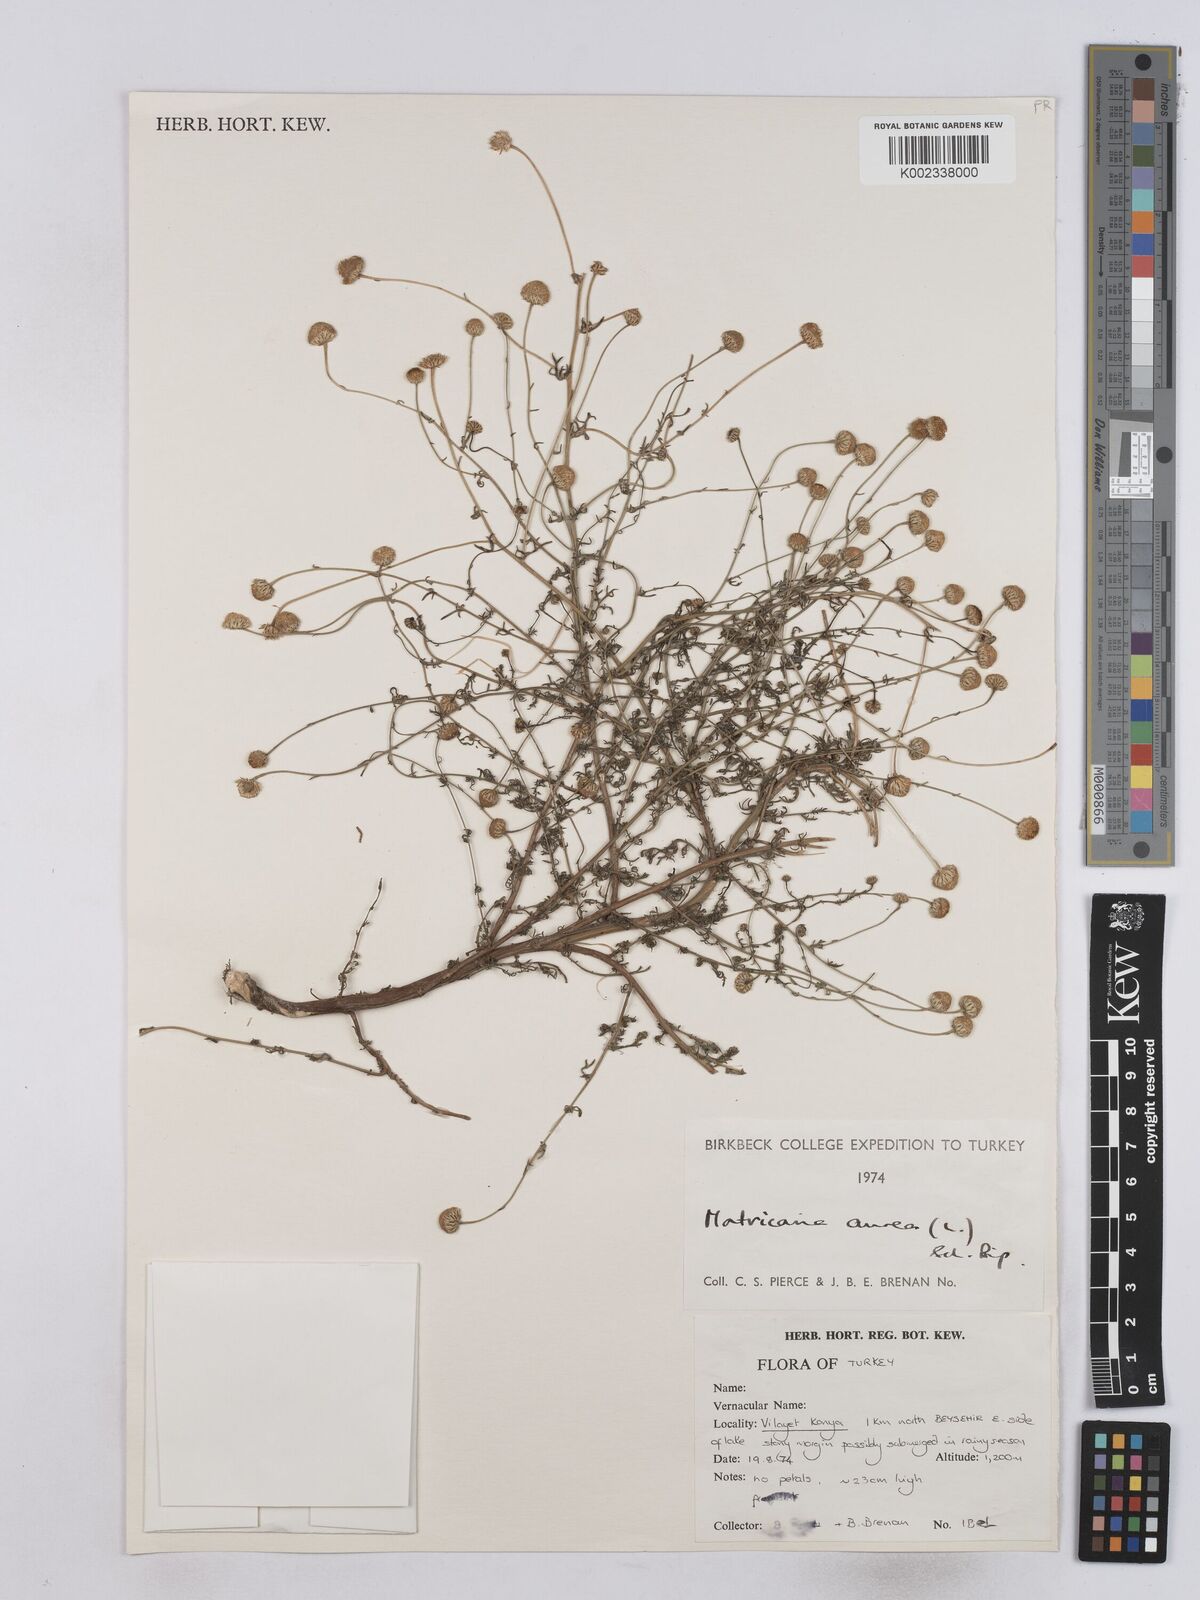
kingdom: Plantae
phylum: Tracheophyta
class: Magnoliopsida
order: Asterales
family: Asteraceae
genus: Matricaria
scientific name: Matricaria aurea
